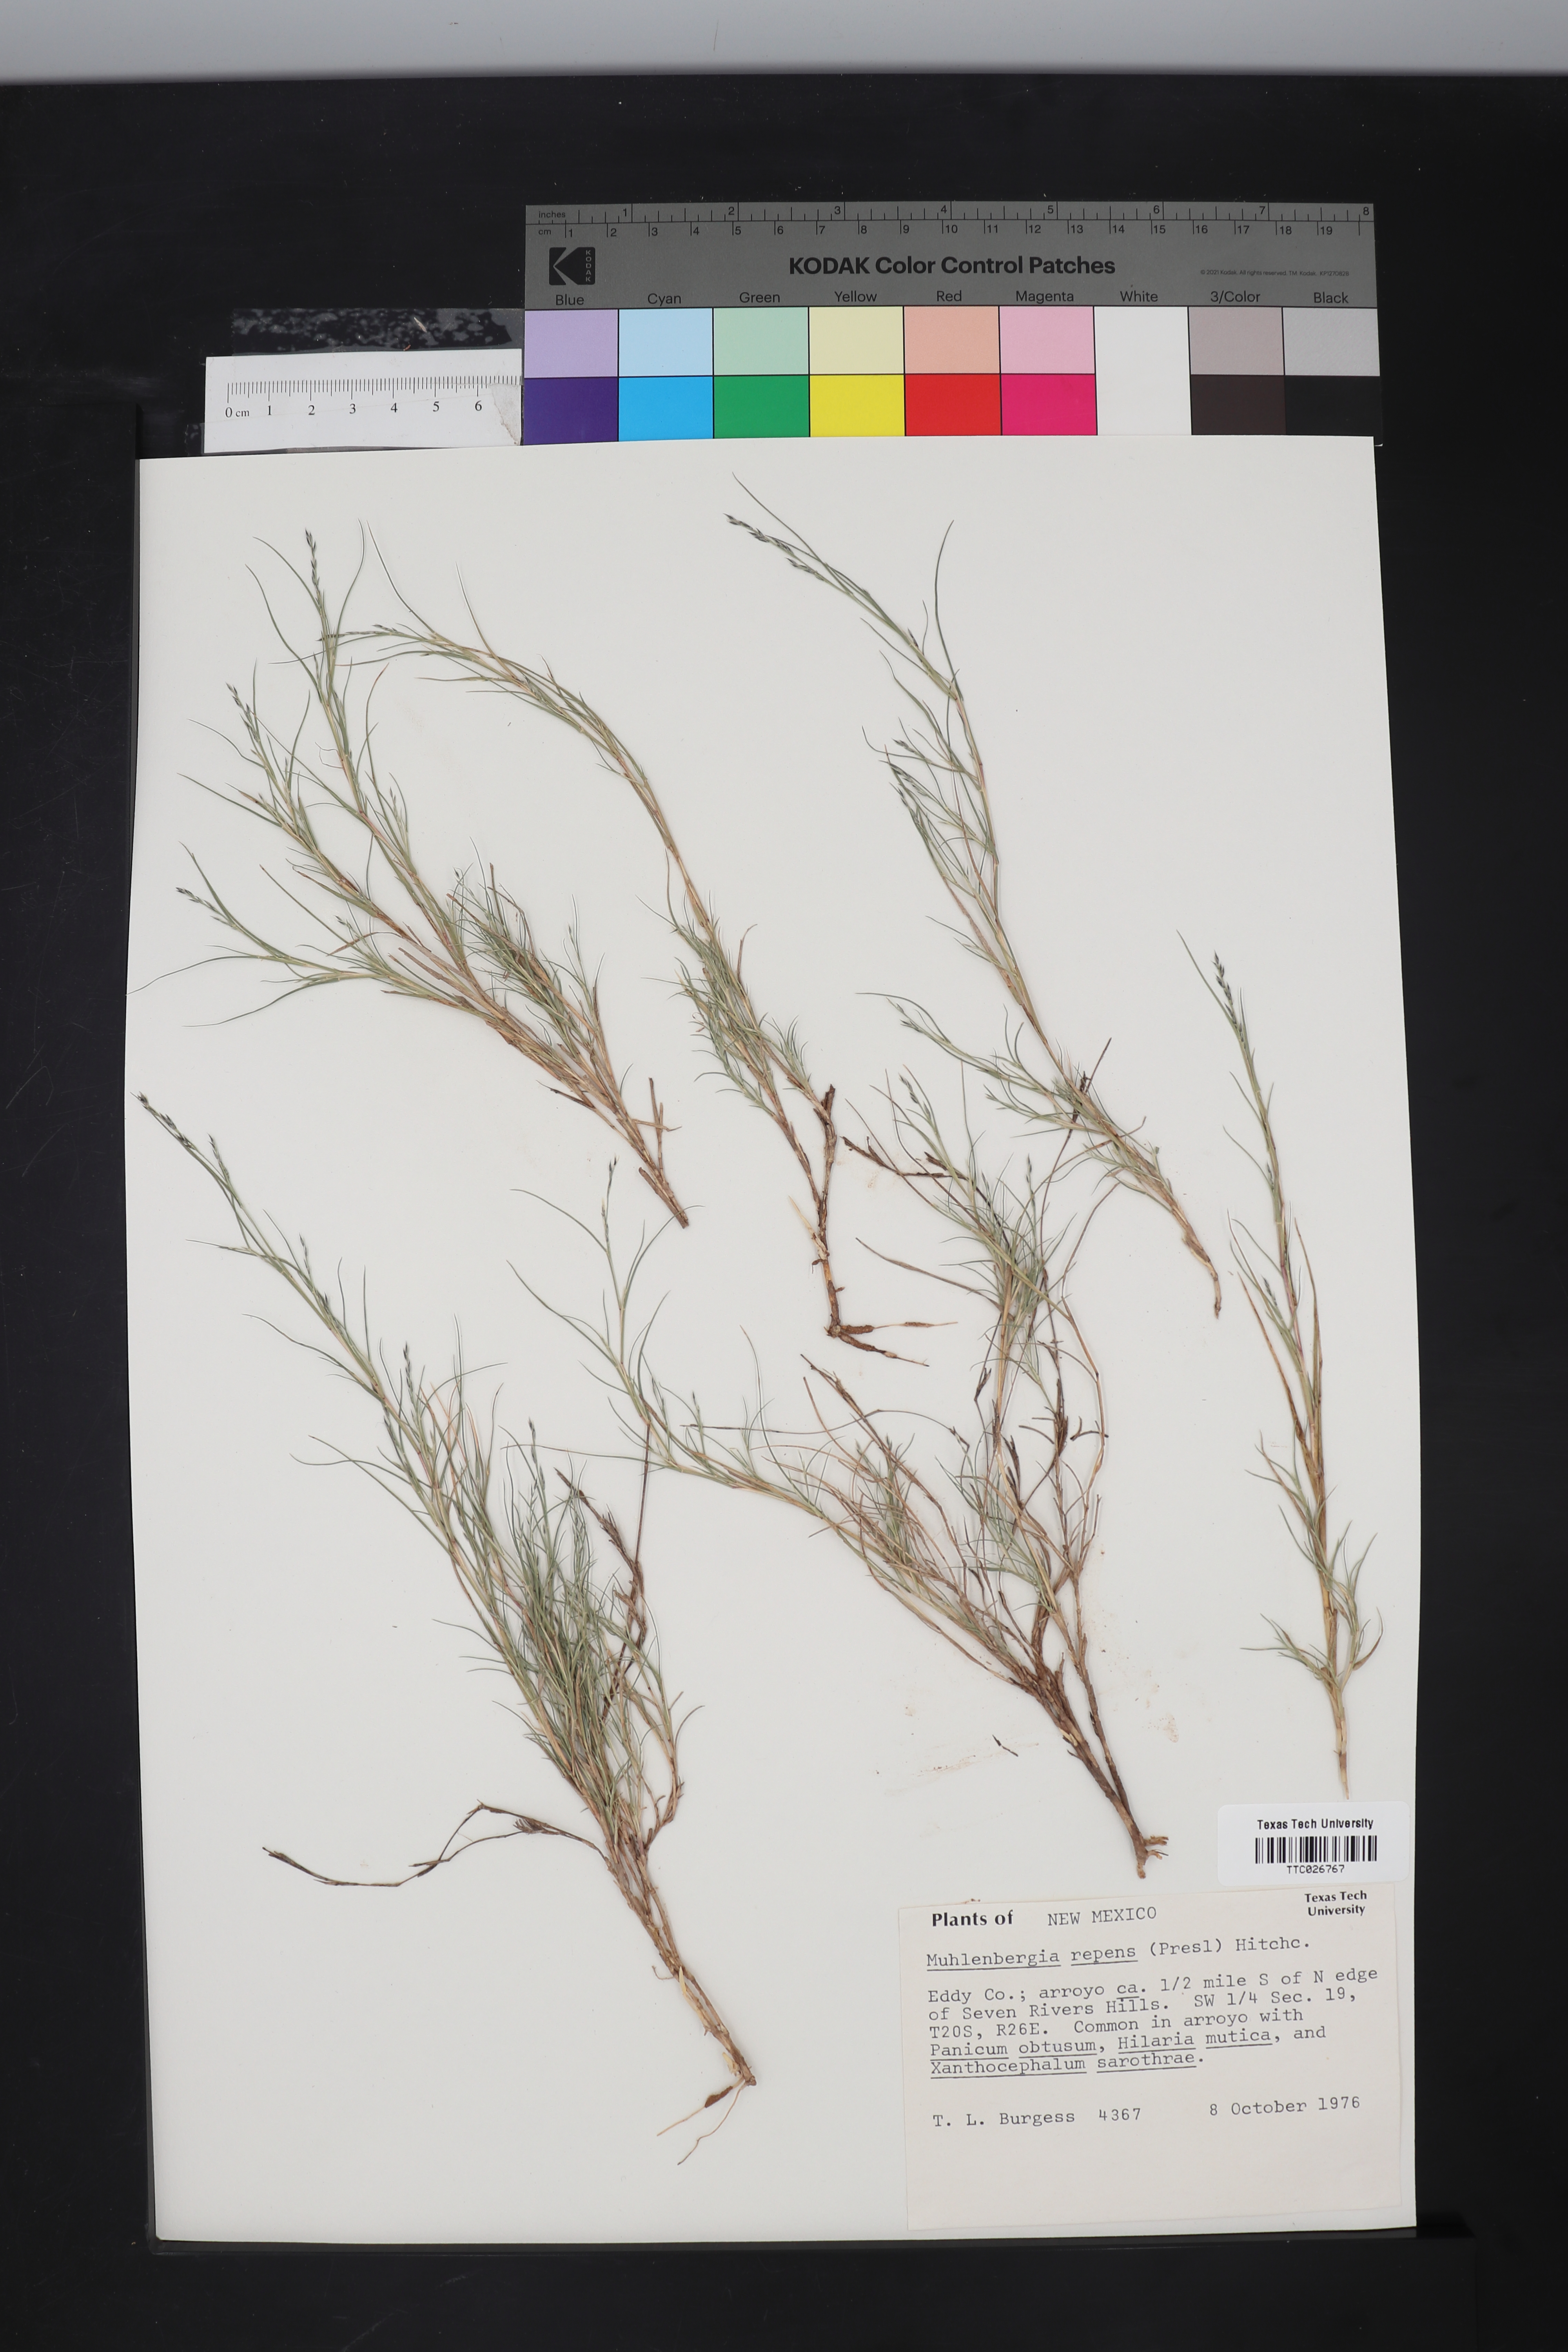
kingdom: Plantae
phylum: Tracheophyta
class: Liliopsida
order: Poales
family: Poaceae
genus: Muhlenbergia
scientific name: Muhlenbergia repens
